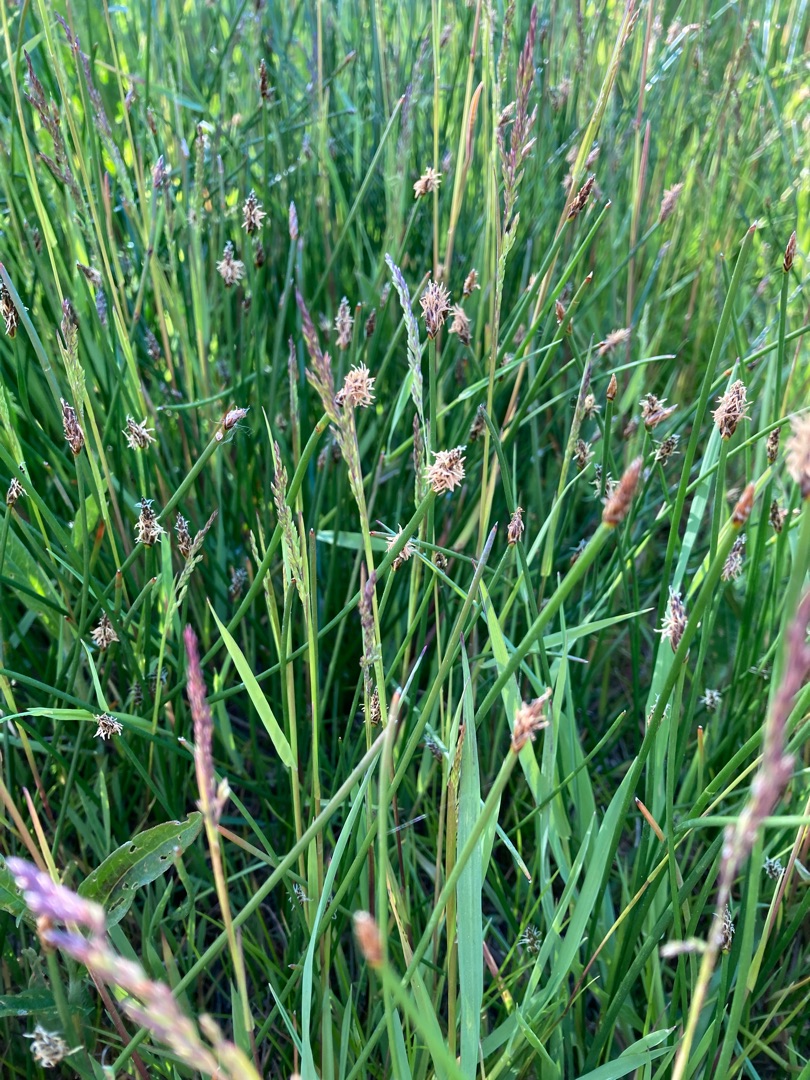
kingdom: Plantae
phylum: Tracheophyta
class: Liliopsida
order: Poales
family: Cyperaceae
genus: Eleocharis
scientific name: Eleocharis palustris
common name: Almindelig sumpstrå
